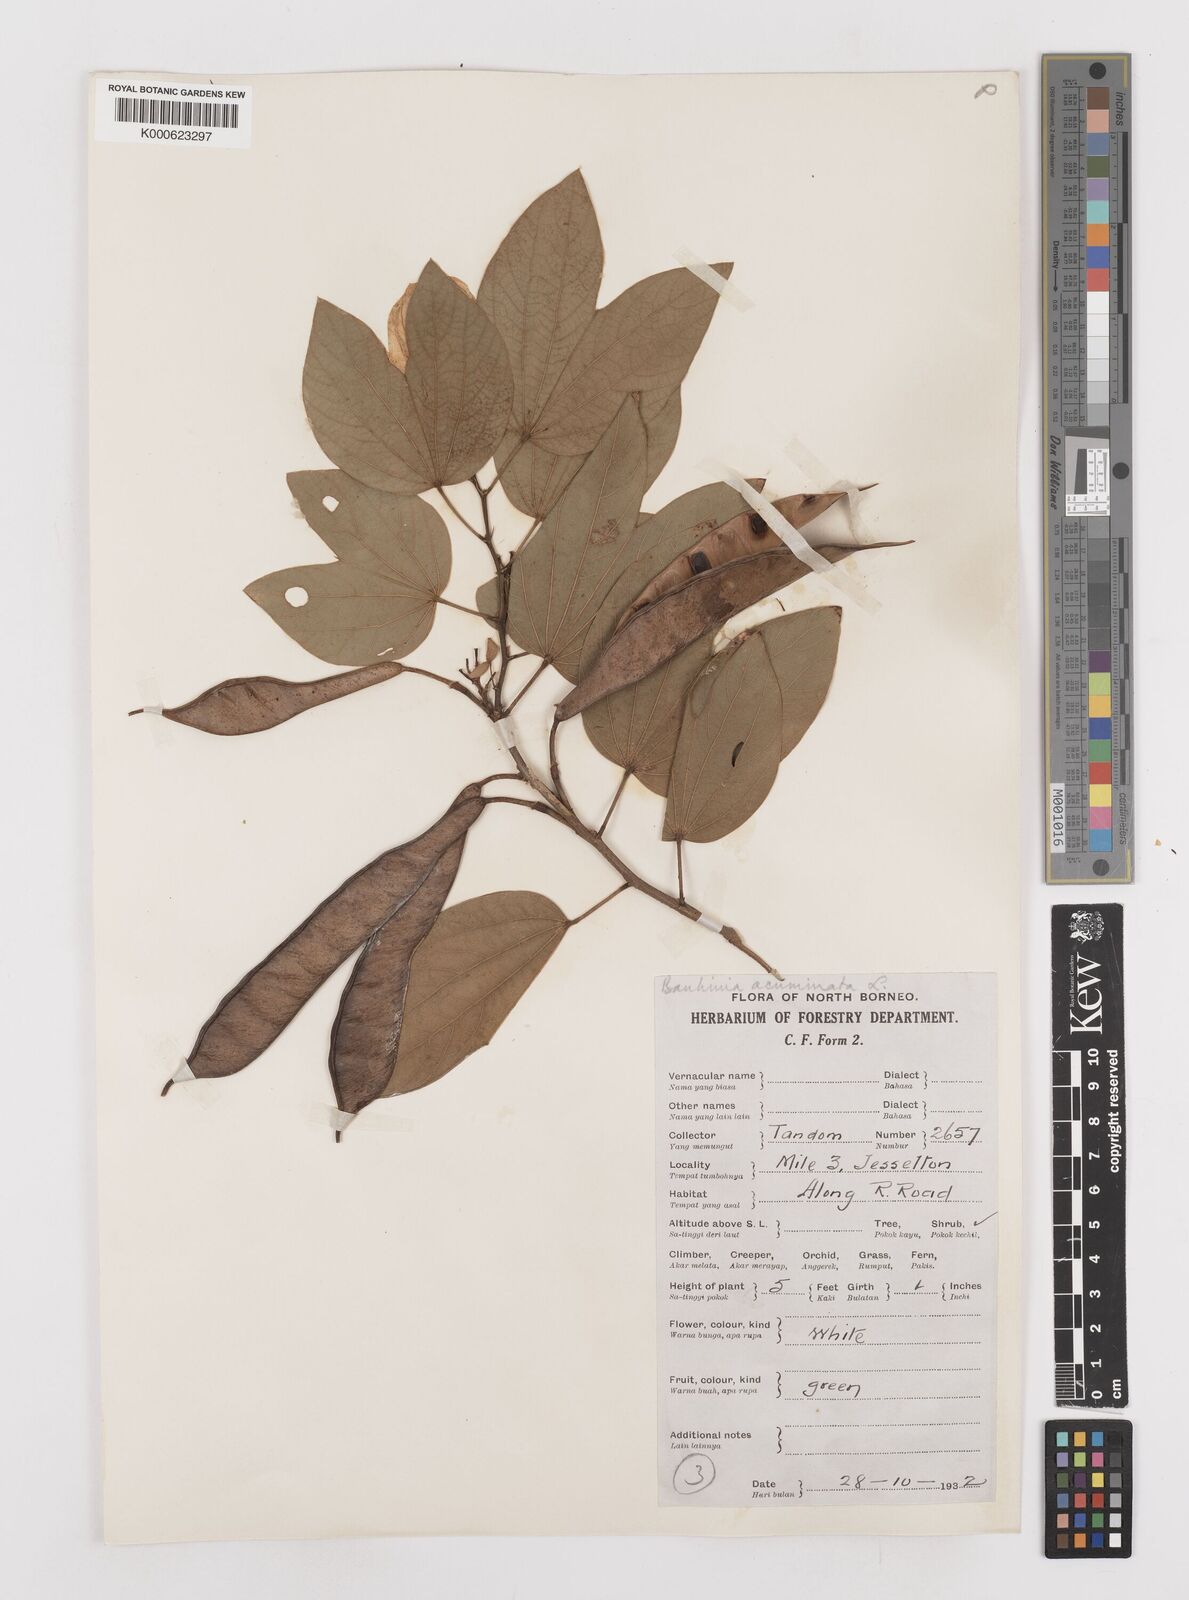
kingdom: Plantae
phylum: Tracheophyta
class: Magnoliopsida
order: Fabales
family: Fabaceae
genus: Bauhinia
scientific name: Bauhinia acuminata
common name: Dwarf white bauhinia
